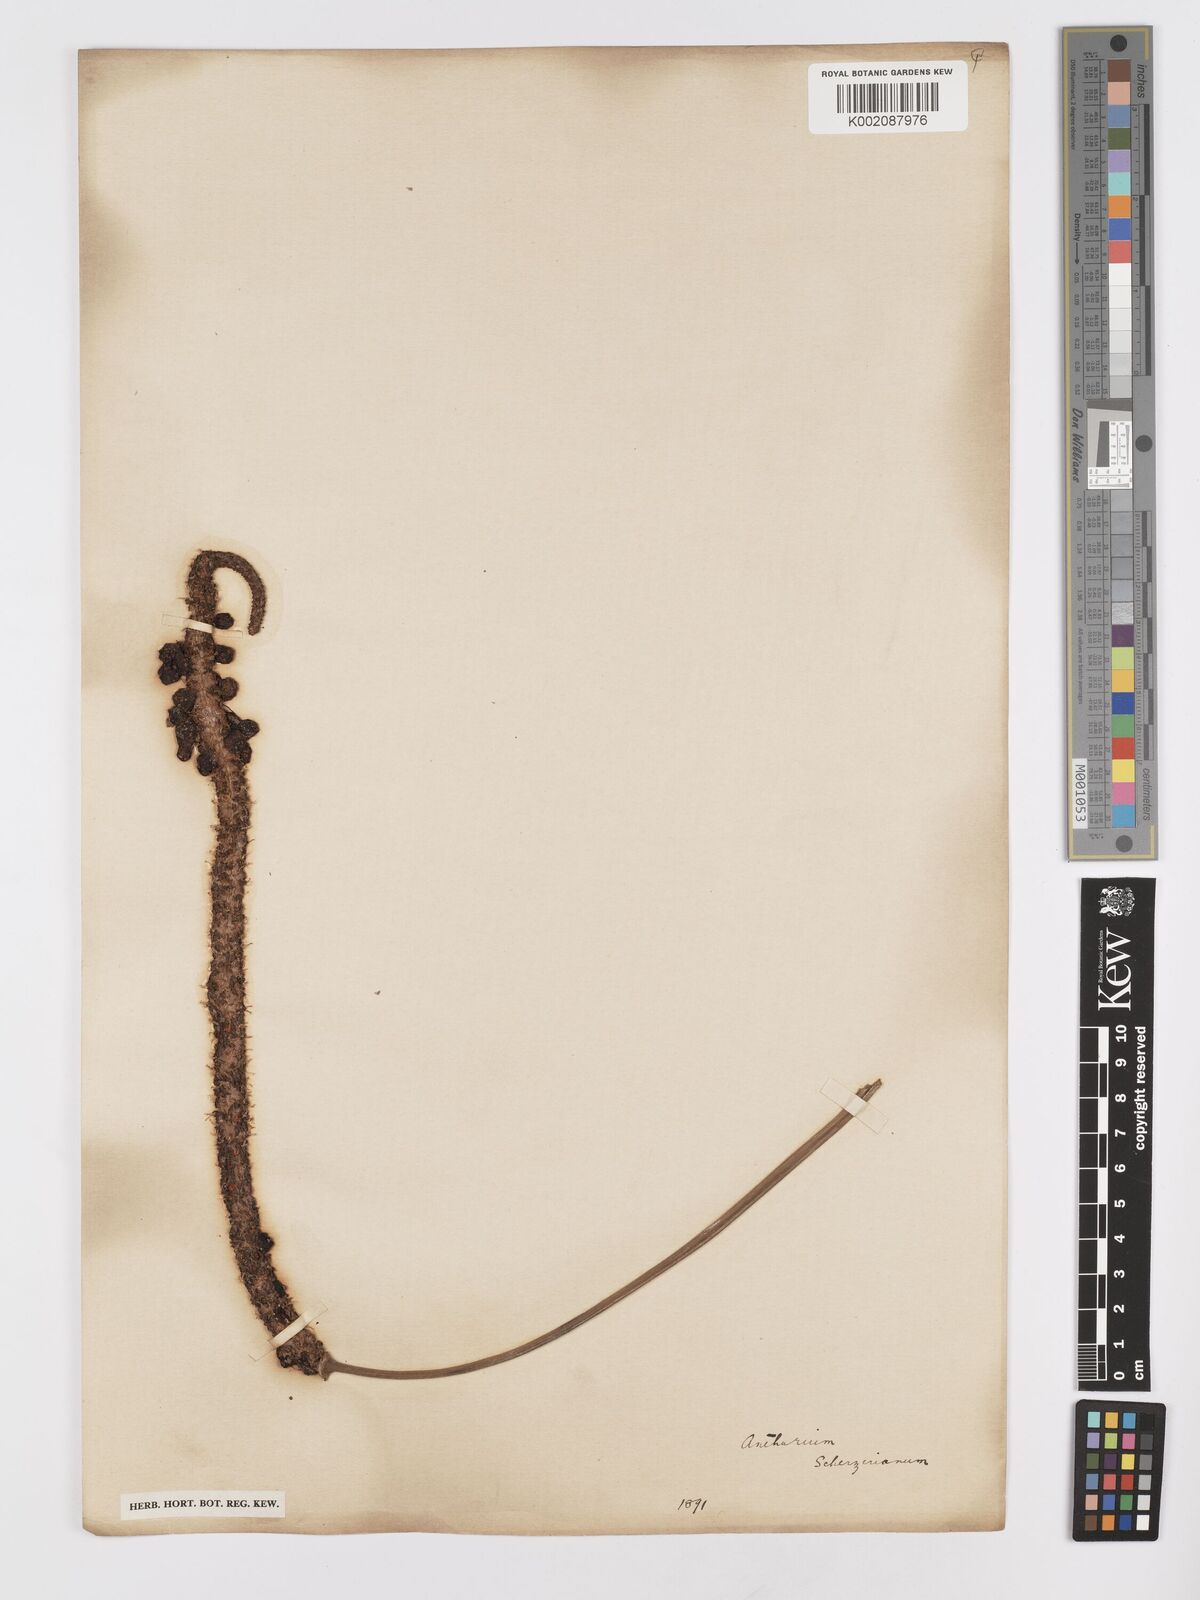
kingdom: Plantae
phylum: Tracheophyta
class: Liliopsida
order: Alismatales
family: Araceae
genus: Anthurium
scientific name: Anthurium scherzerianum
